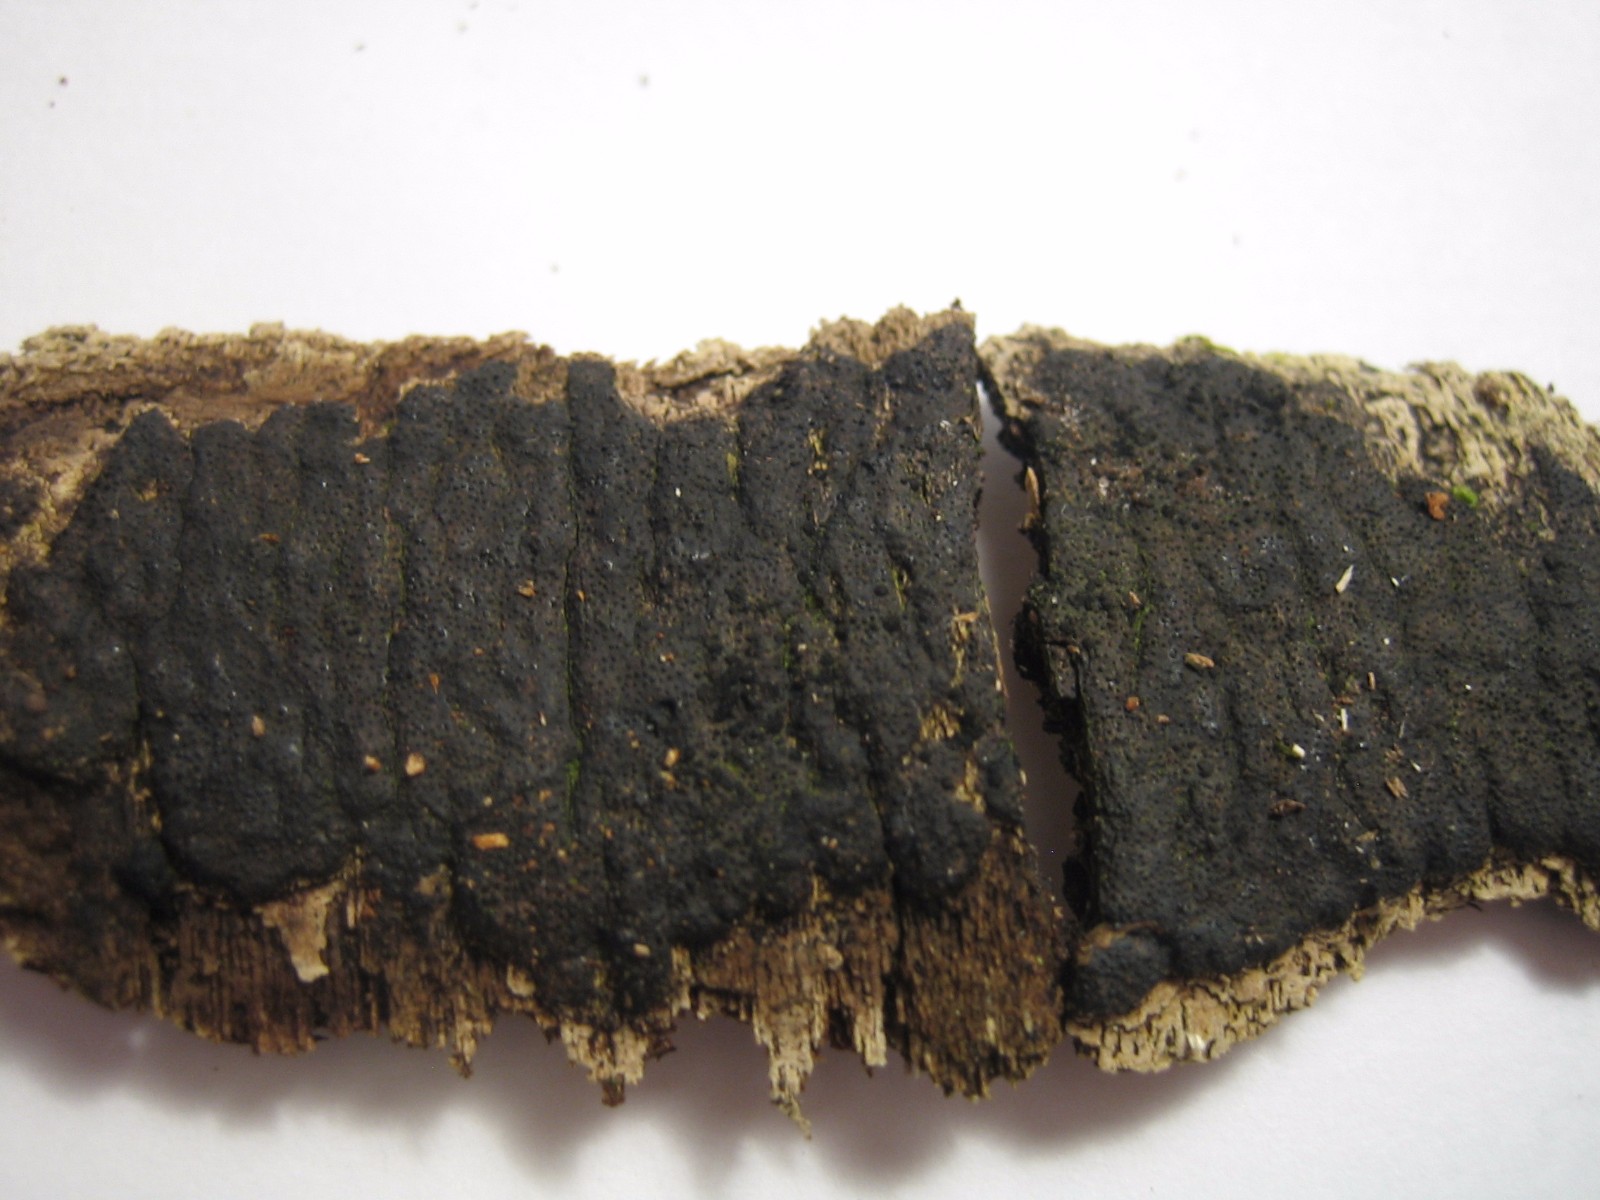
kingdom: Fungi
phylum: Ascomycota
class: Sordariomycetes
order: Xylariales
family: Diatrypaceae
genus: Eutypa
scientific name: Eutypa spinosa
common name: grov kulskorpe
